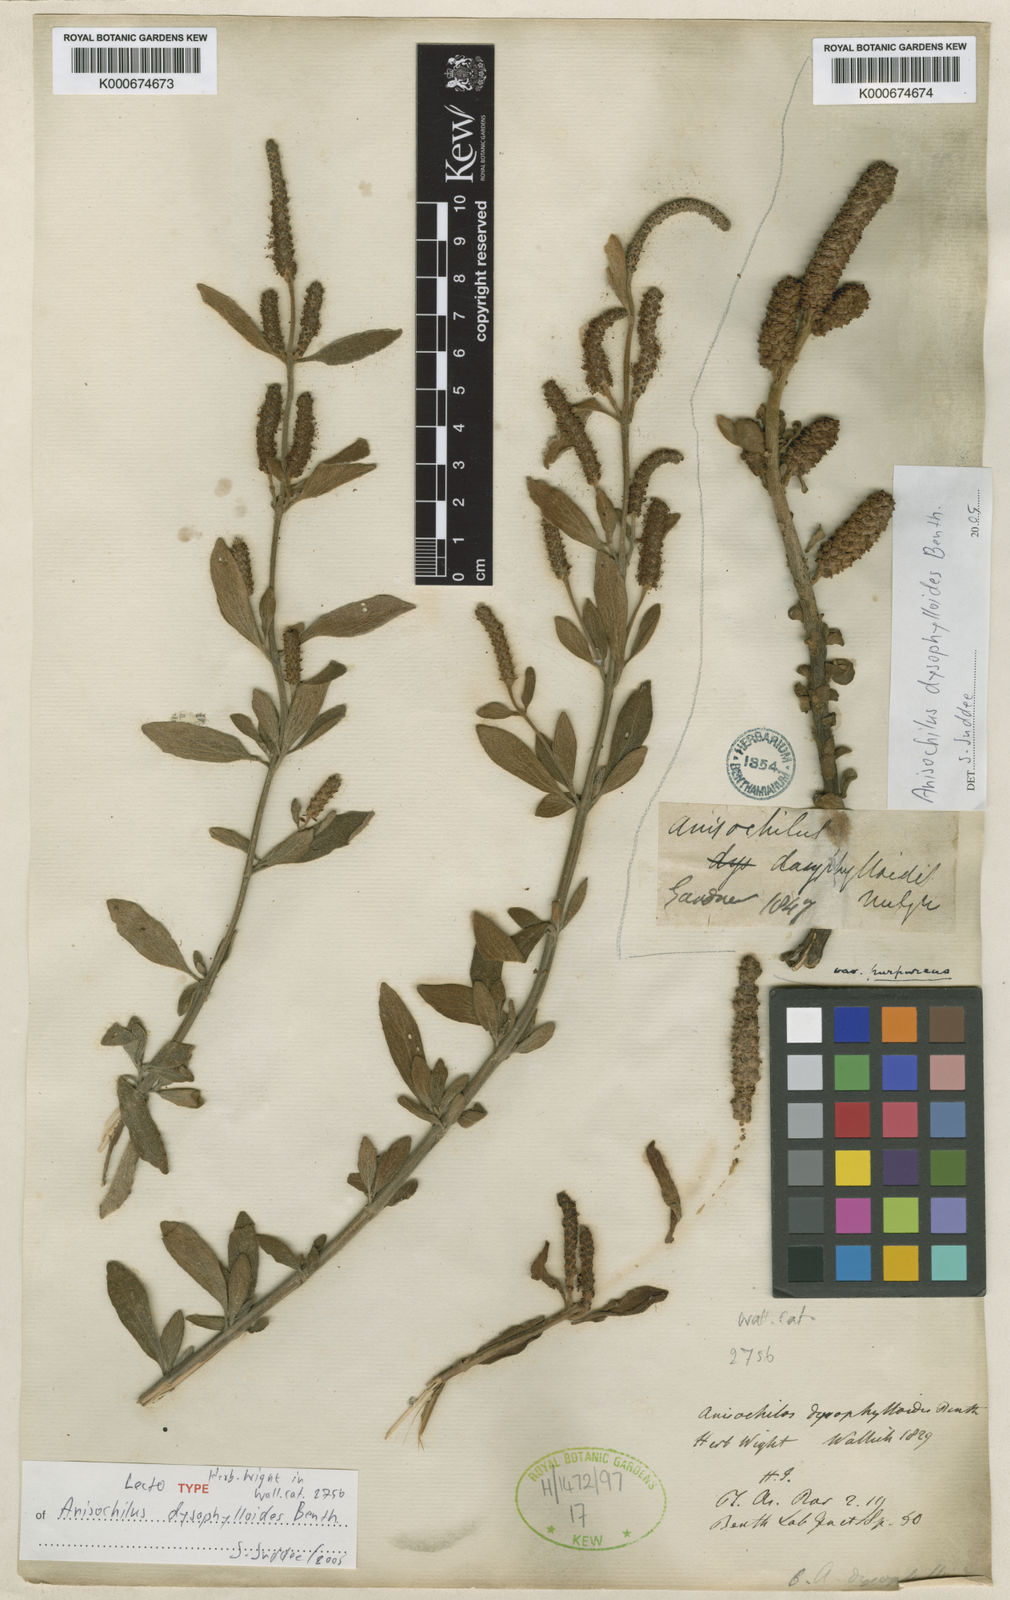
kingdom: Plantae
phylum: Tracheophyta
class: Magnoliopsida
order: Lamiales
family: Lamiaceae
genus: Coleus
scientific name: Coleus dysophylloides
